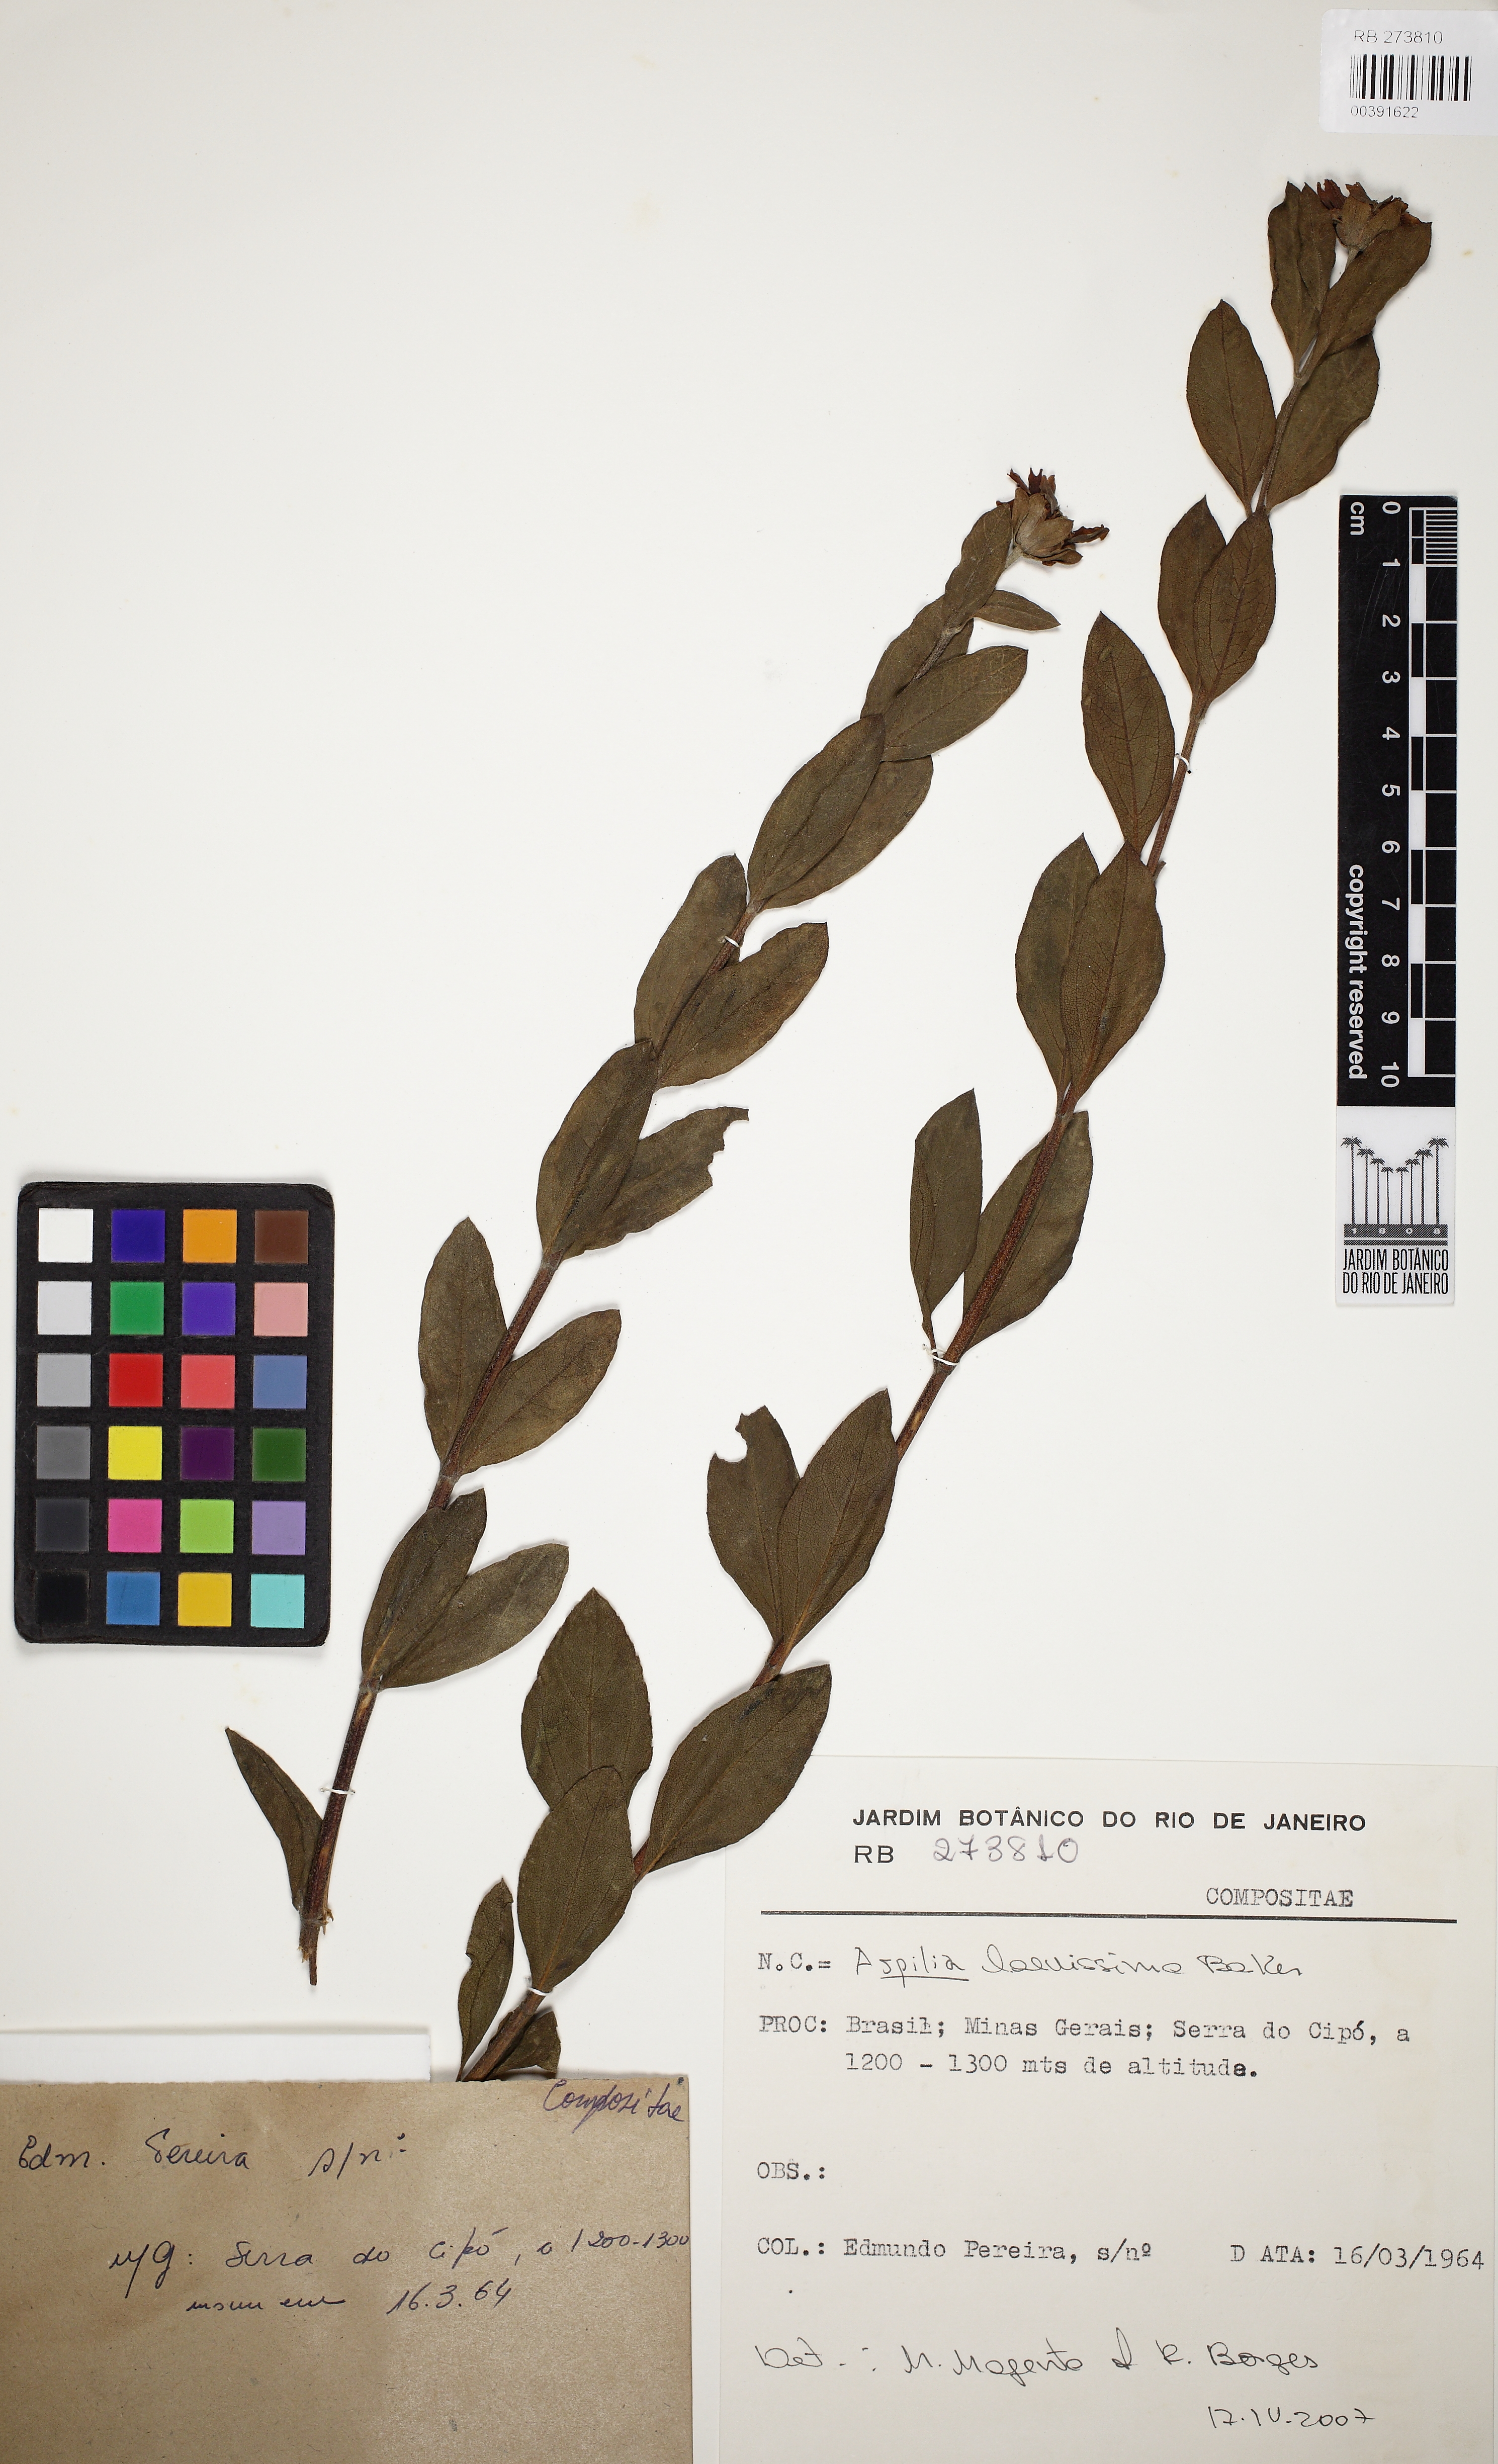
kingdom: Plantae
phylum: Tracheophyta
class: Magnoliopsida
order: Asterales
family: Asteraceae
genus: Aspilia
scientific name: Aspilia latissima
